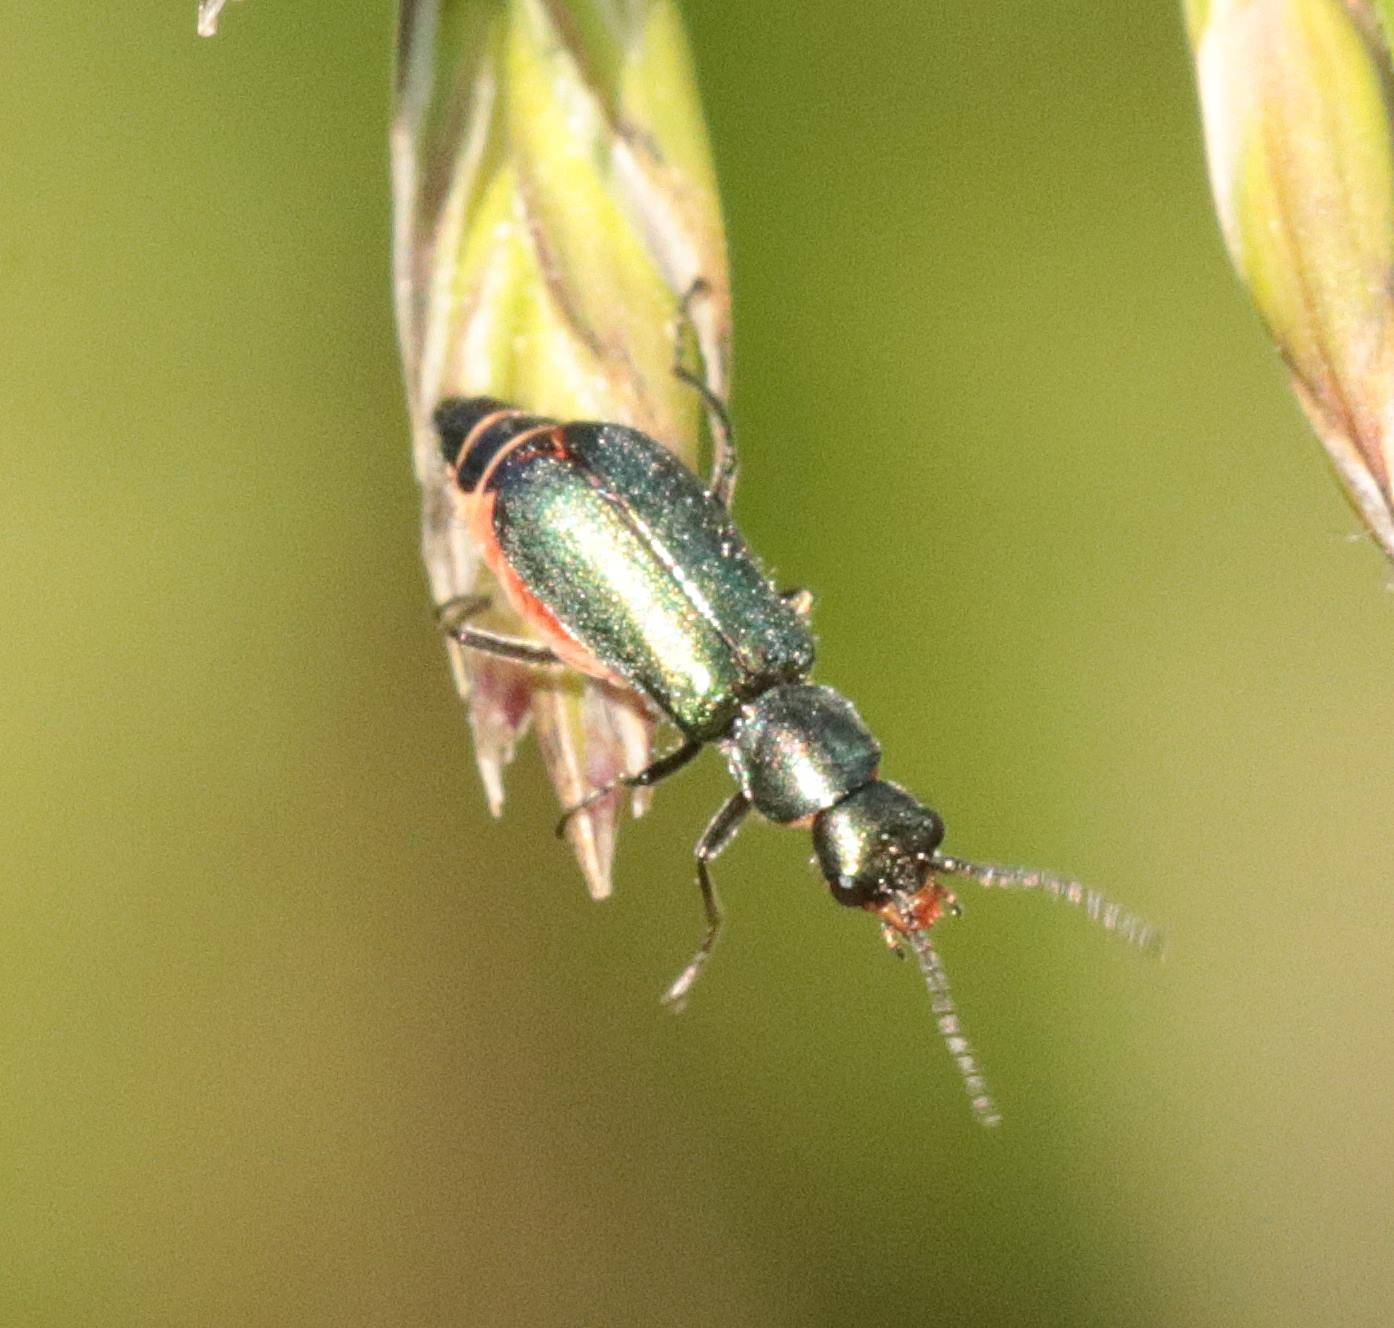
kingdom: Animalia
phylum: Arthropoda
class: Insecta
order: Coleoptera
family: Malachiidae
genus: Cordylepherus
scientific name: Cordylepherus viridis
